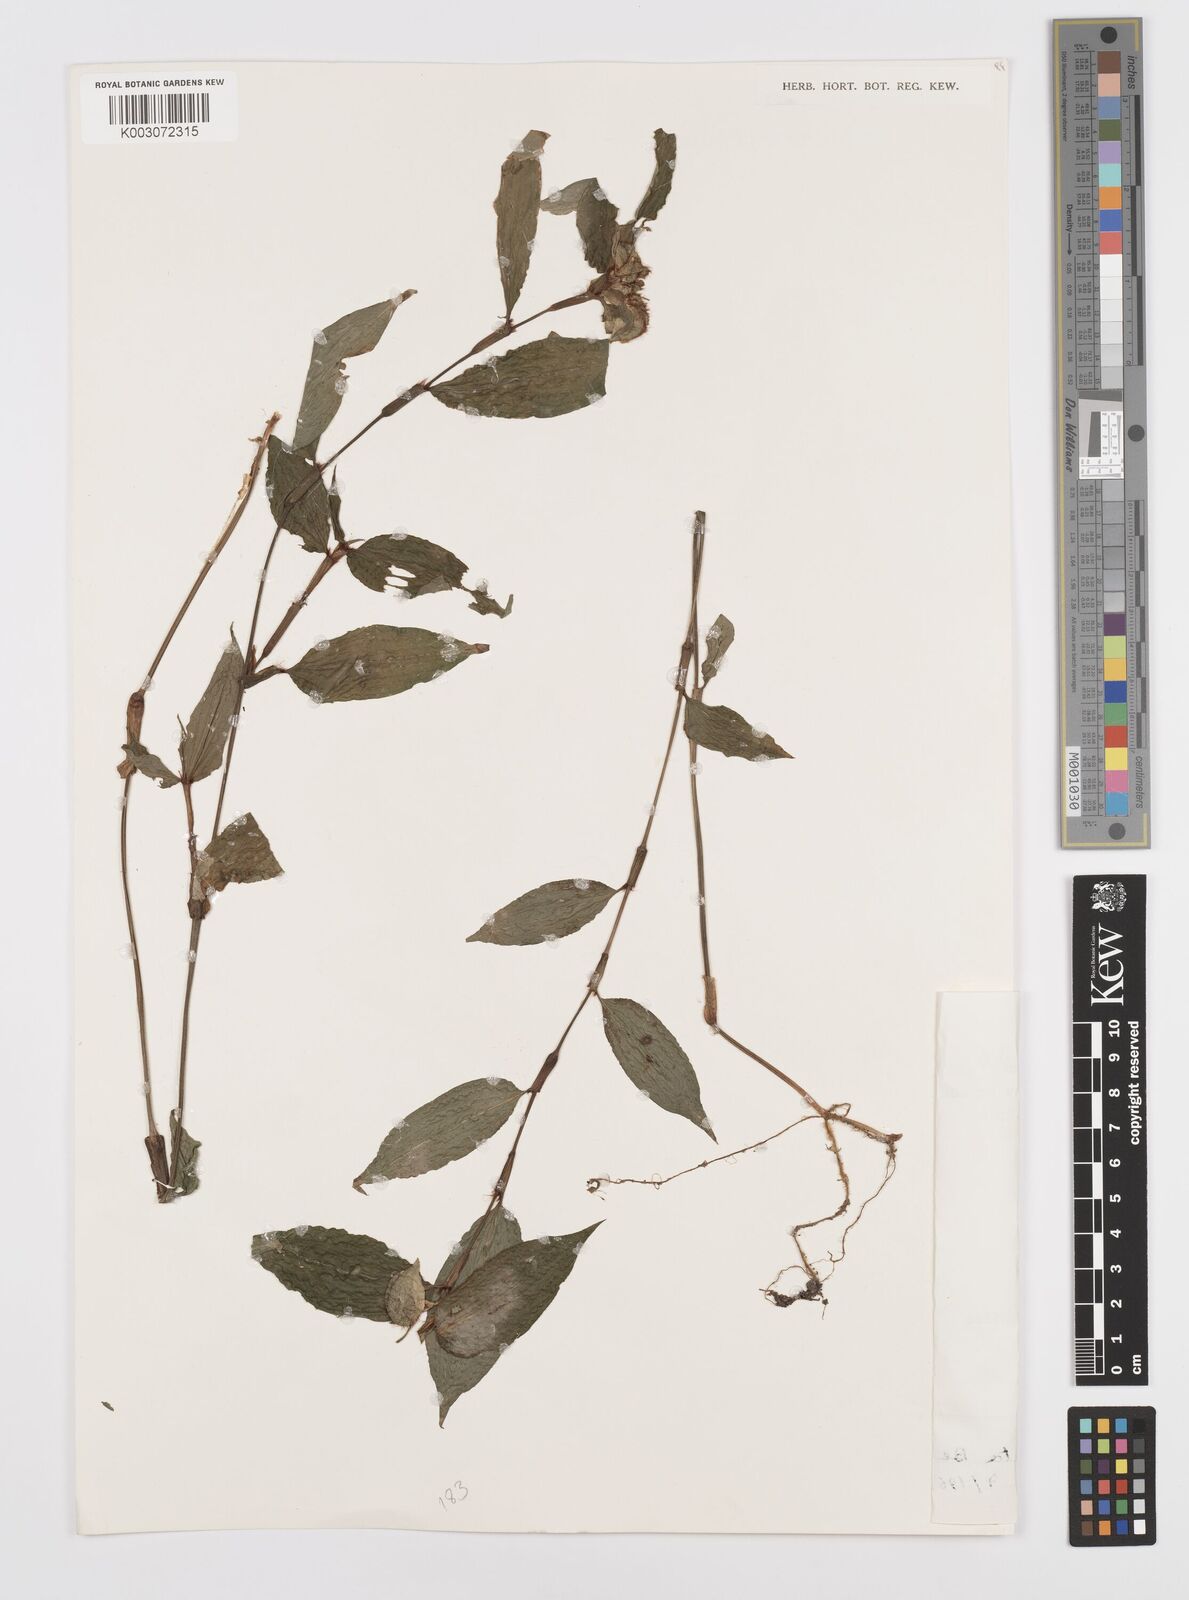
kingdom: Plantae
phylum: Tracheophyta
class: Liliopsida
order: Commelinales
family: Commelinaceae
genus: Commelina
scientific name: Commelina capitata
